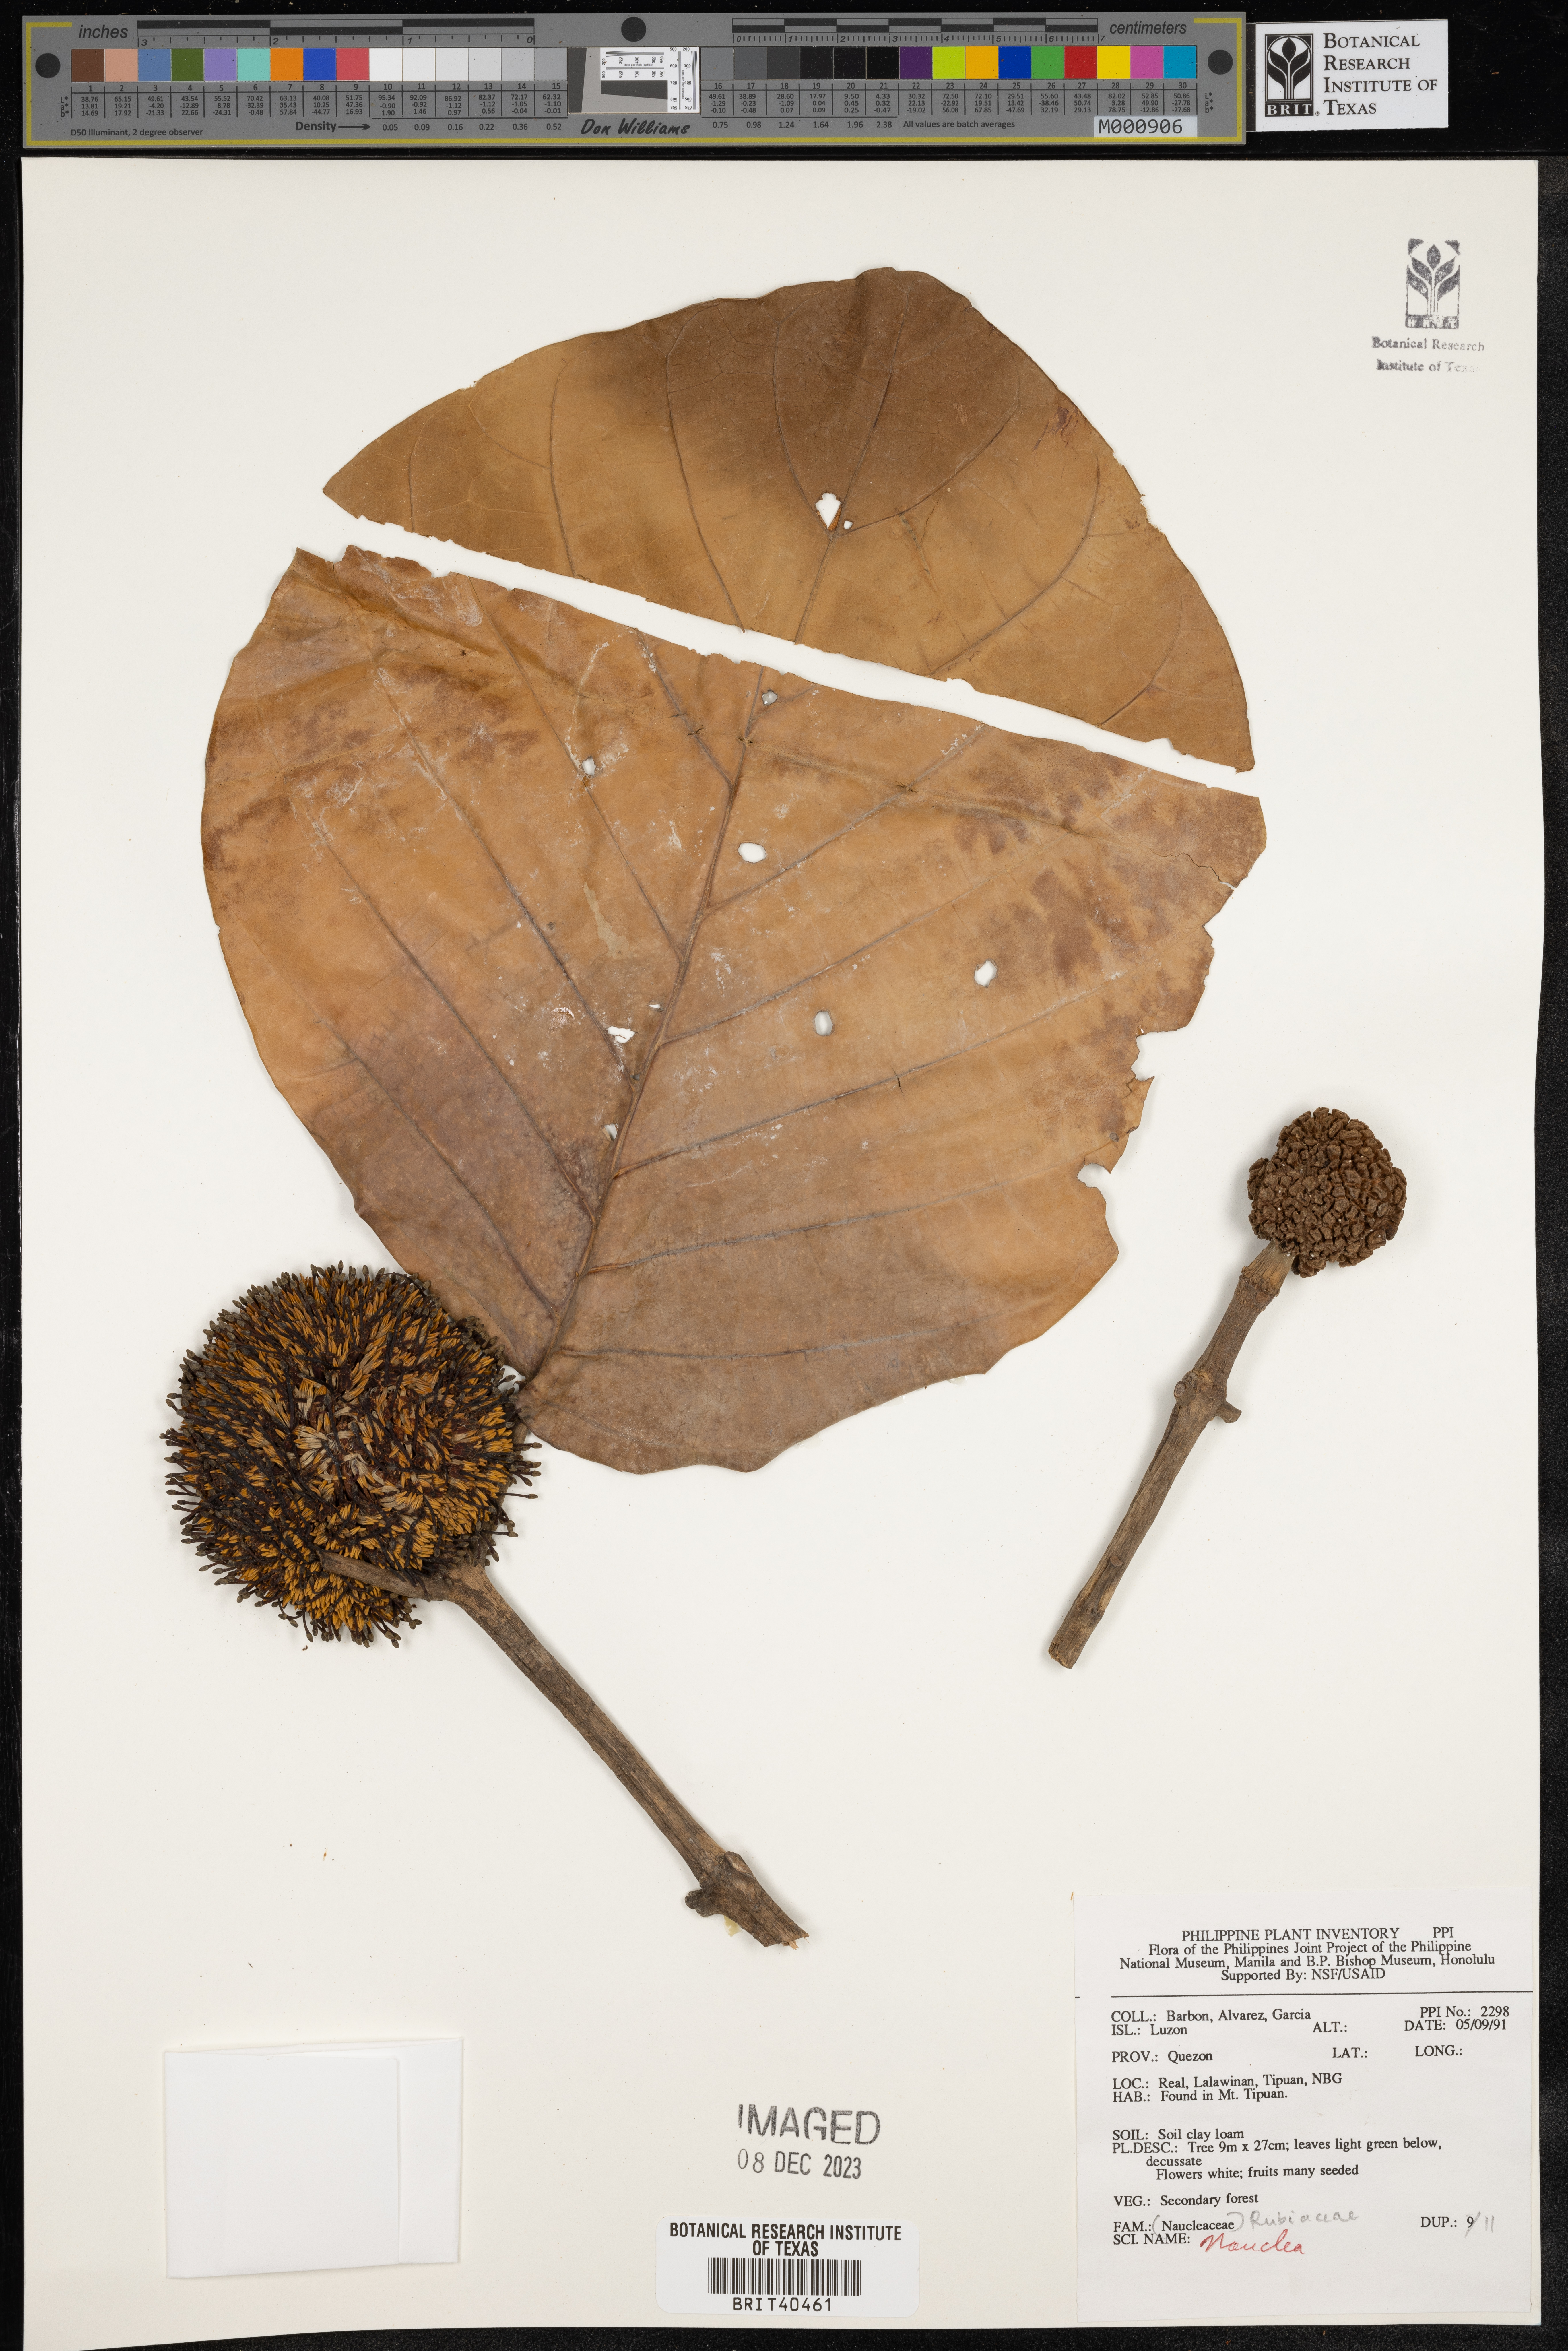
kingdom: Plantae
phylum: Tracheophyta
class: Magnoliopsida
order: Gentianales
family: Rubiaceae
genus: Nauclea
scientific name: Nauclea
